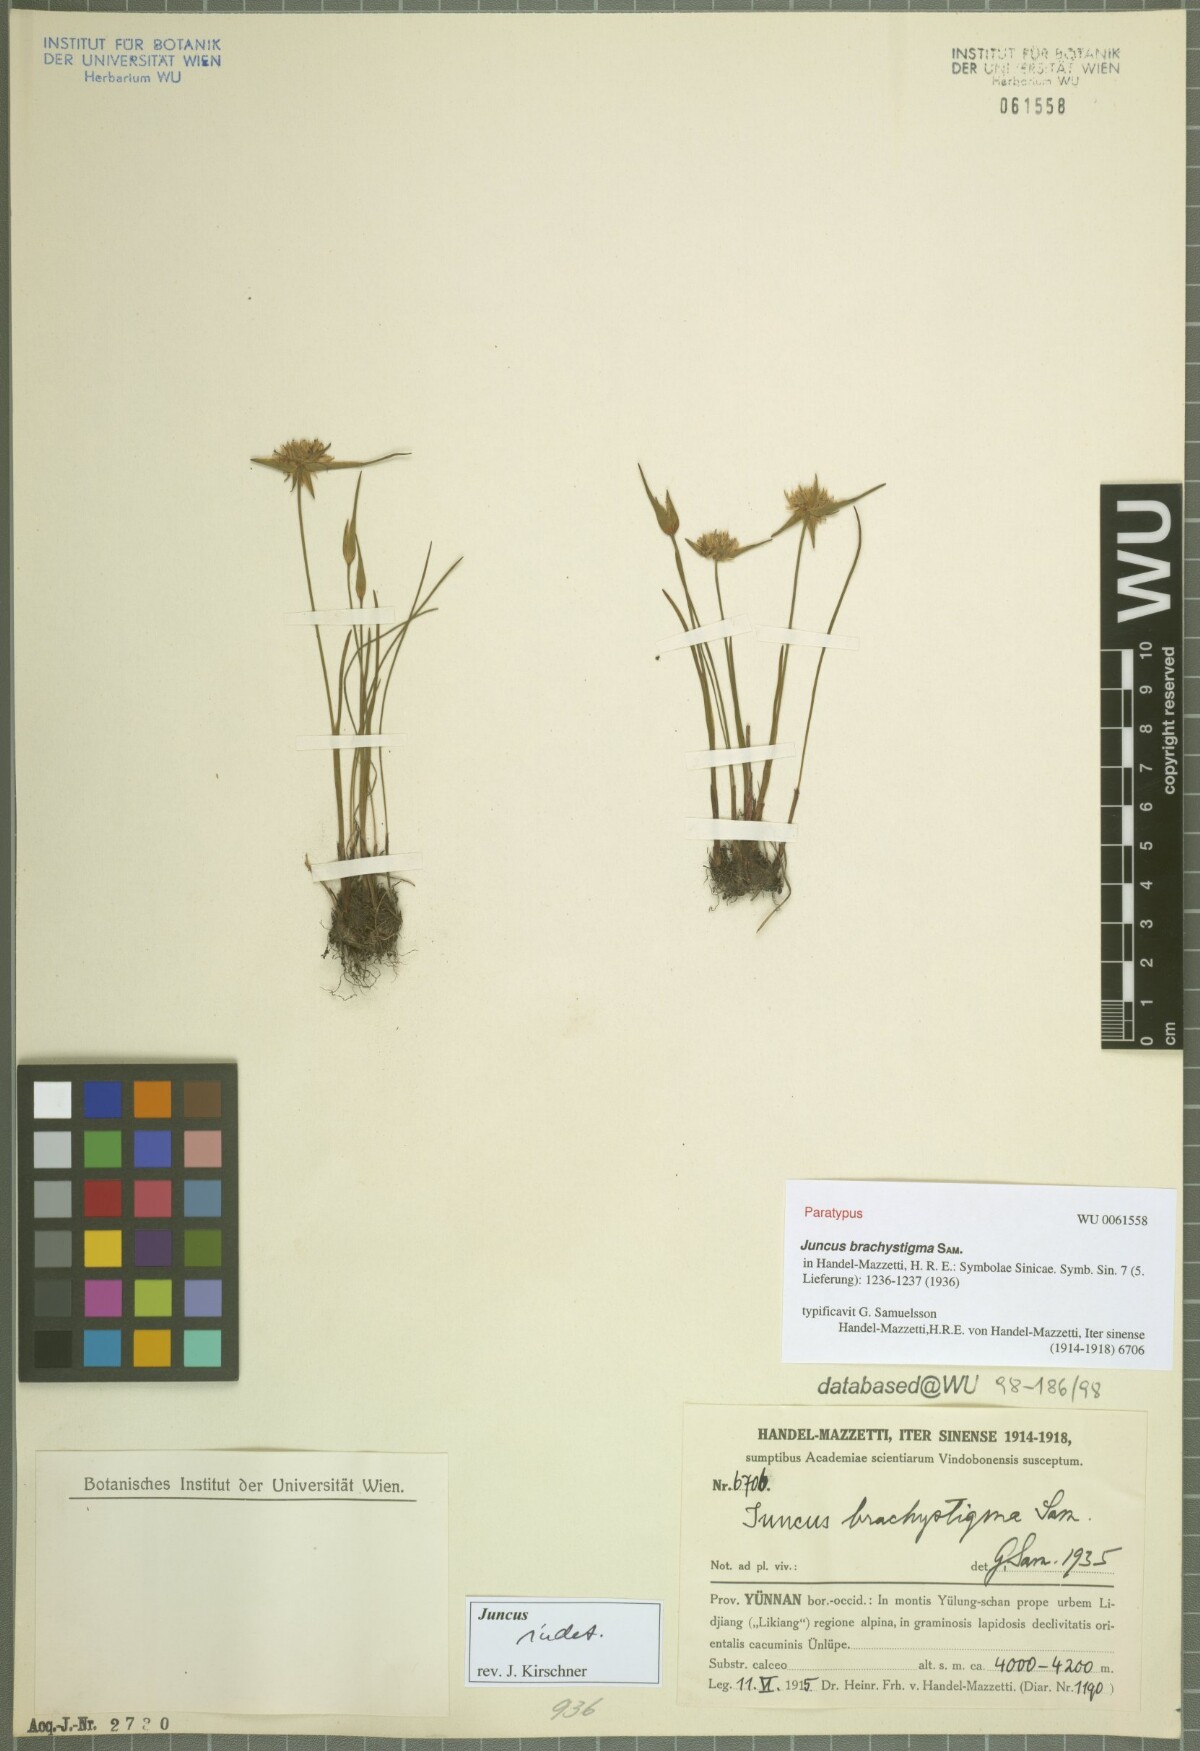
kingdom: Plantae
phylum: Tracheophyta
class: Liliopsida
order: Poales
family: Juncaceae
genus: Juncus
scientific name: Juncus brachystigma
